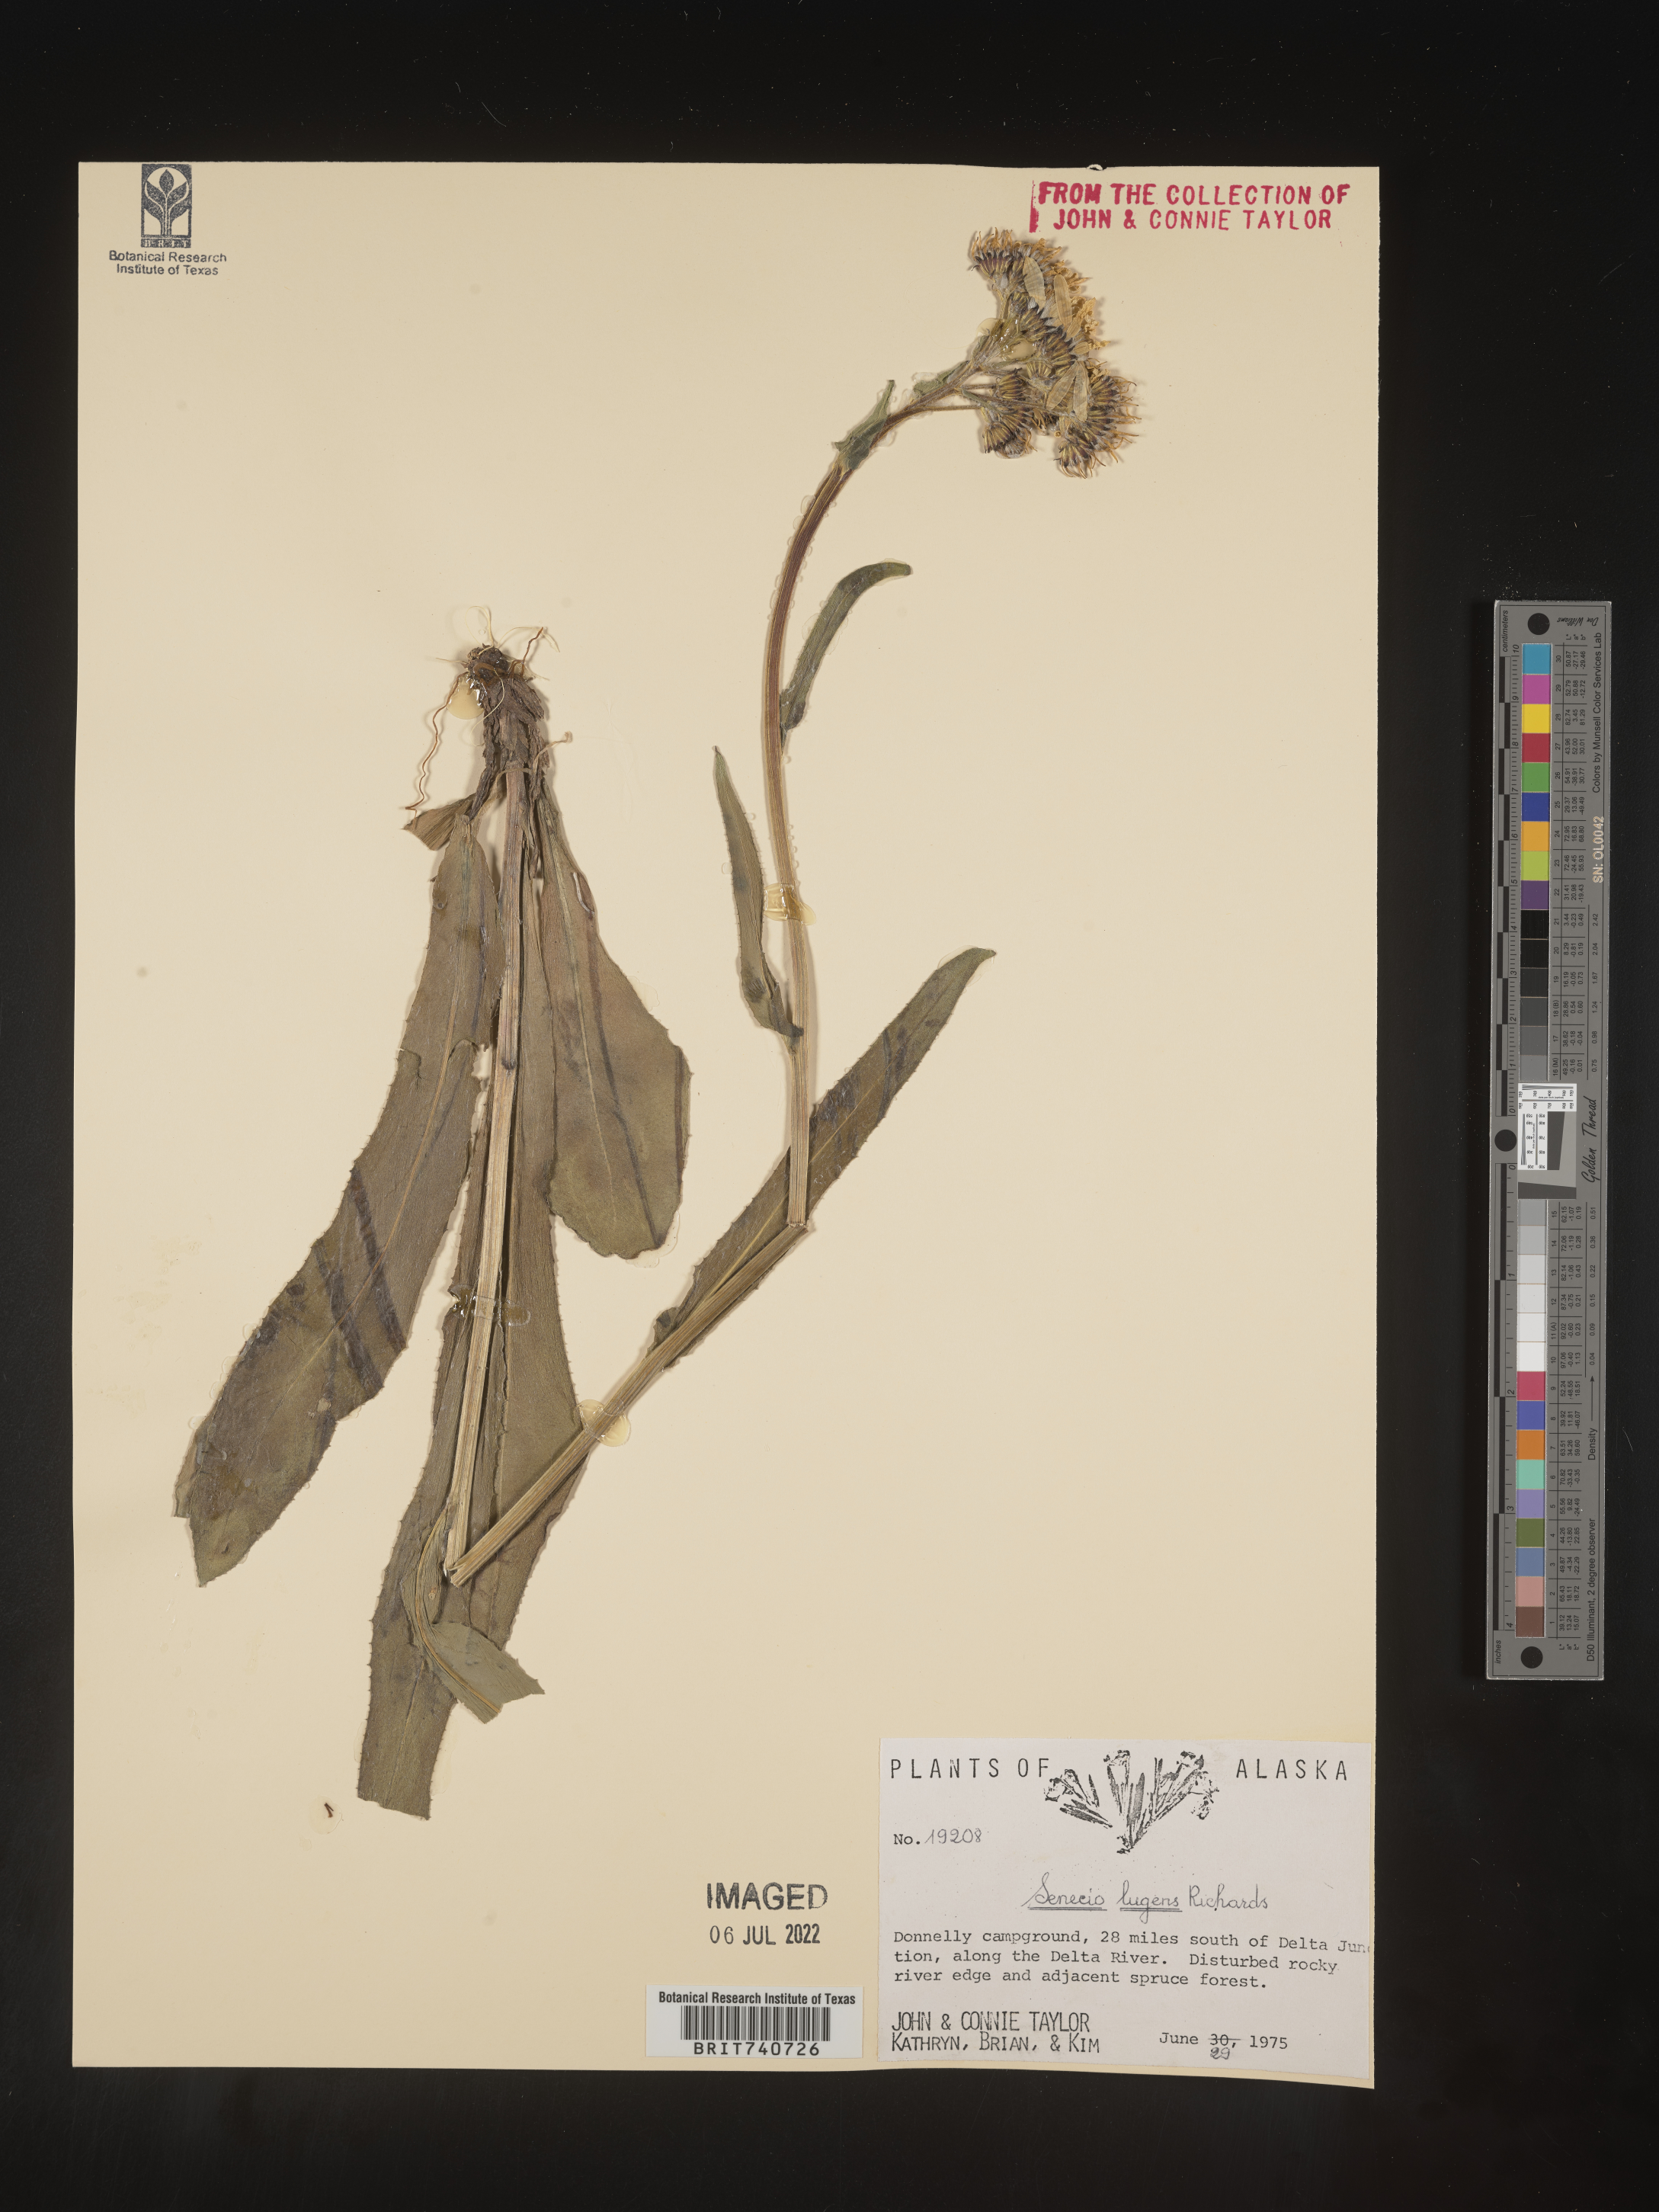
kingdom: Plantae
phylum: Tracheophyta
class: Magnoliopsida
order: Asterales
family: Asteraceae
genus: Senecio
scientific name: Senecio lugens
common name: Black-tip groundsel
